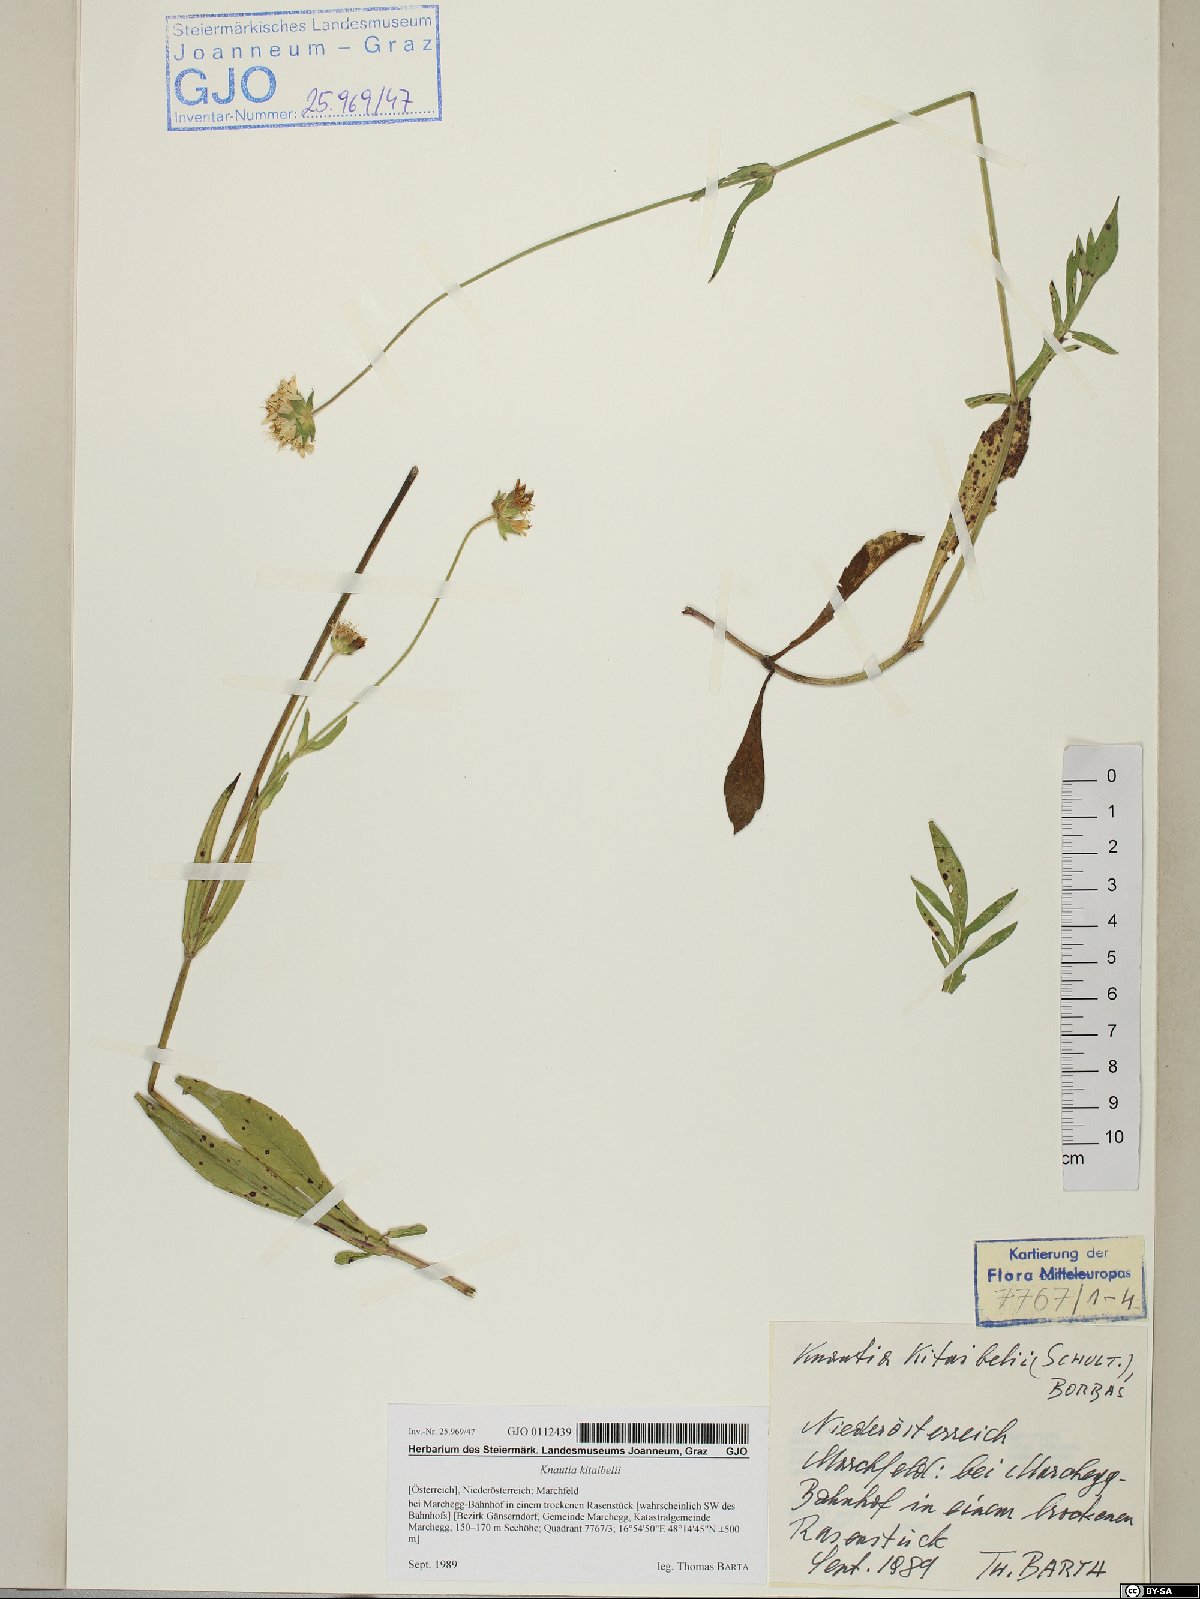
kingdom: Plantae
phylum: Tracheophyta
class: Magnoliopsida
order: Dipsacales
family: Caprifoliaceae
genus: Knautia
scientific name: Knautia kitaibelii
